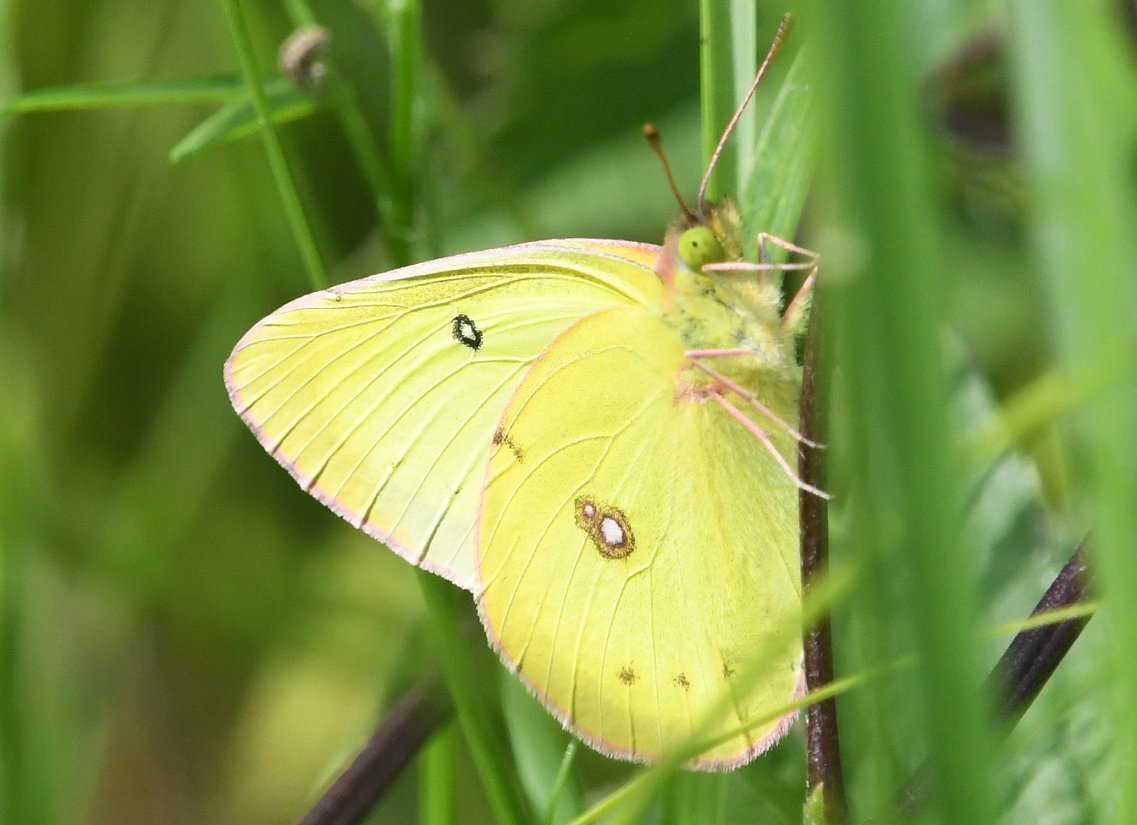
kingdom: Animalia
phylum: Arthropoda
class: Insecta
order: Lepidoptera
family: Pieridae
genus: Colias
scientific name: Colias philodice
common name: Clouded Sulphur
